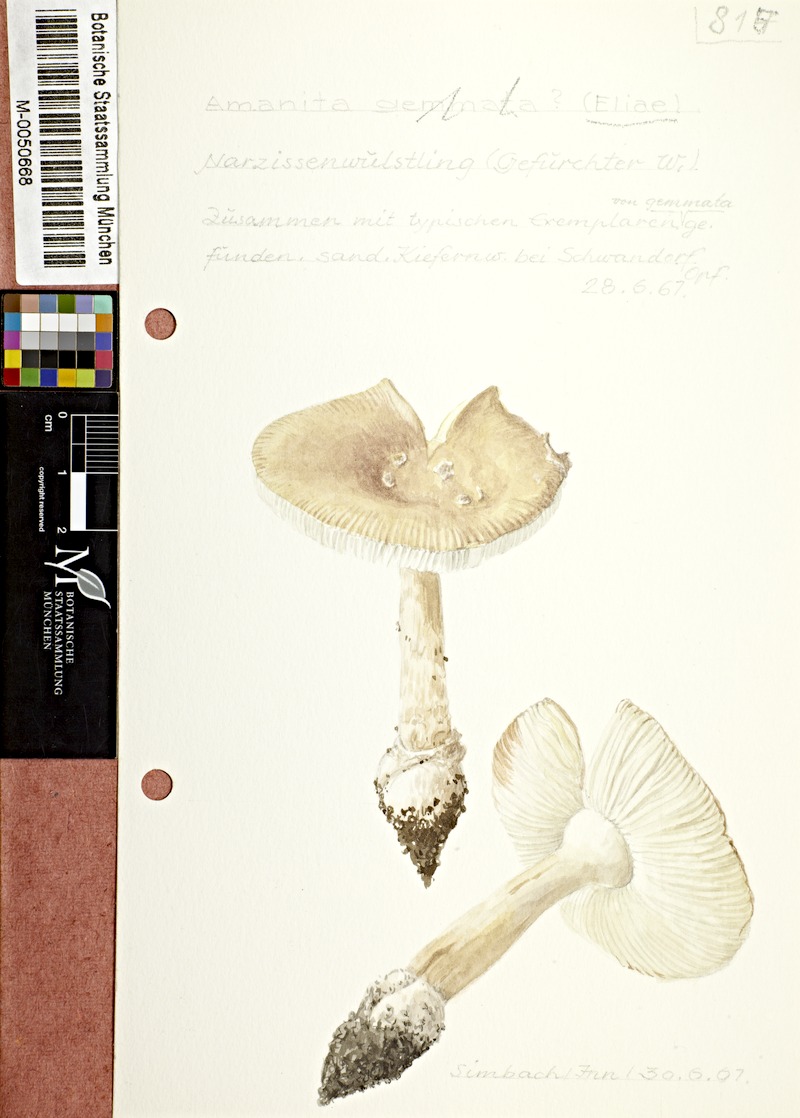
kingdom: Fungi
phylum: Basidiomycota
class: Agaricomycetes
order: Agaricales
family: Amanitaceae
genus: Amanita
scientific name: Amanita eliae
